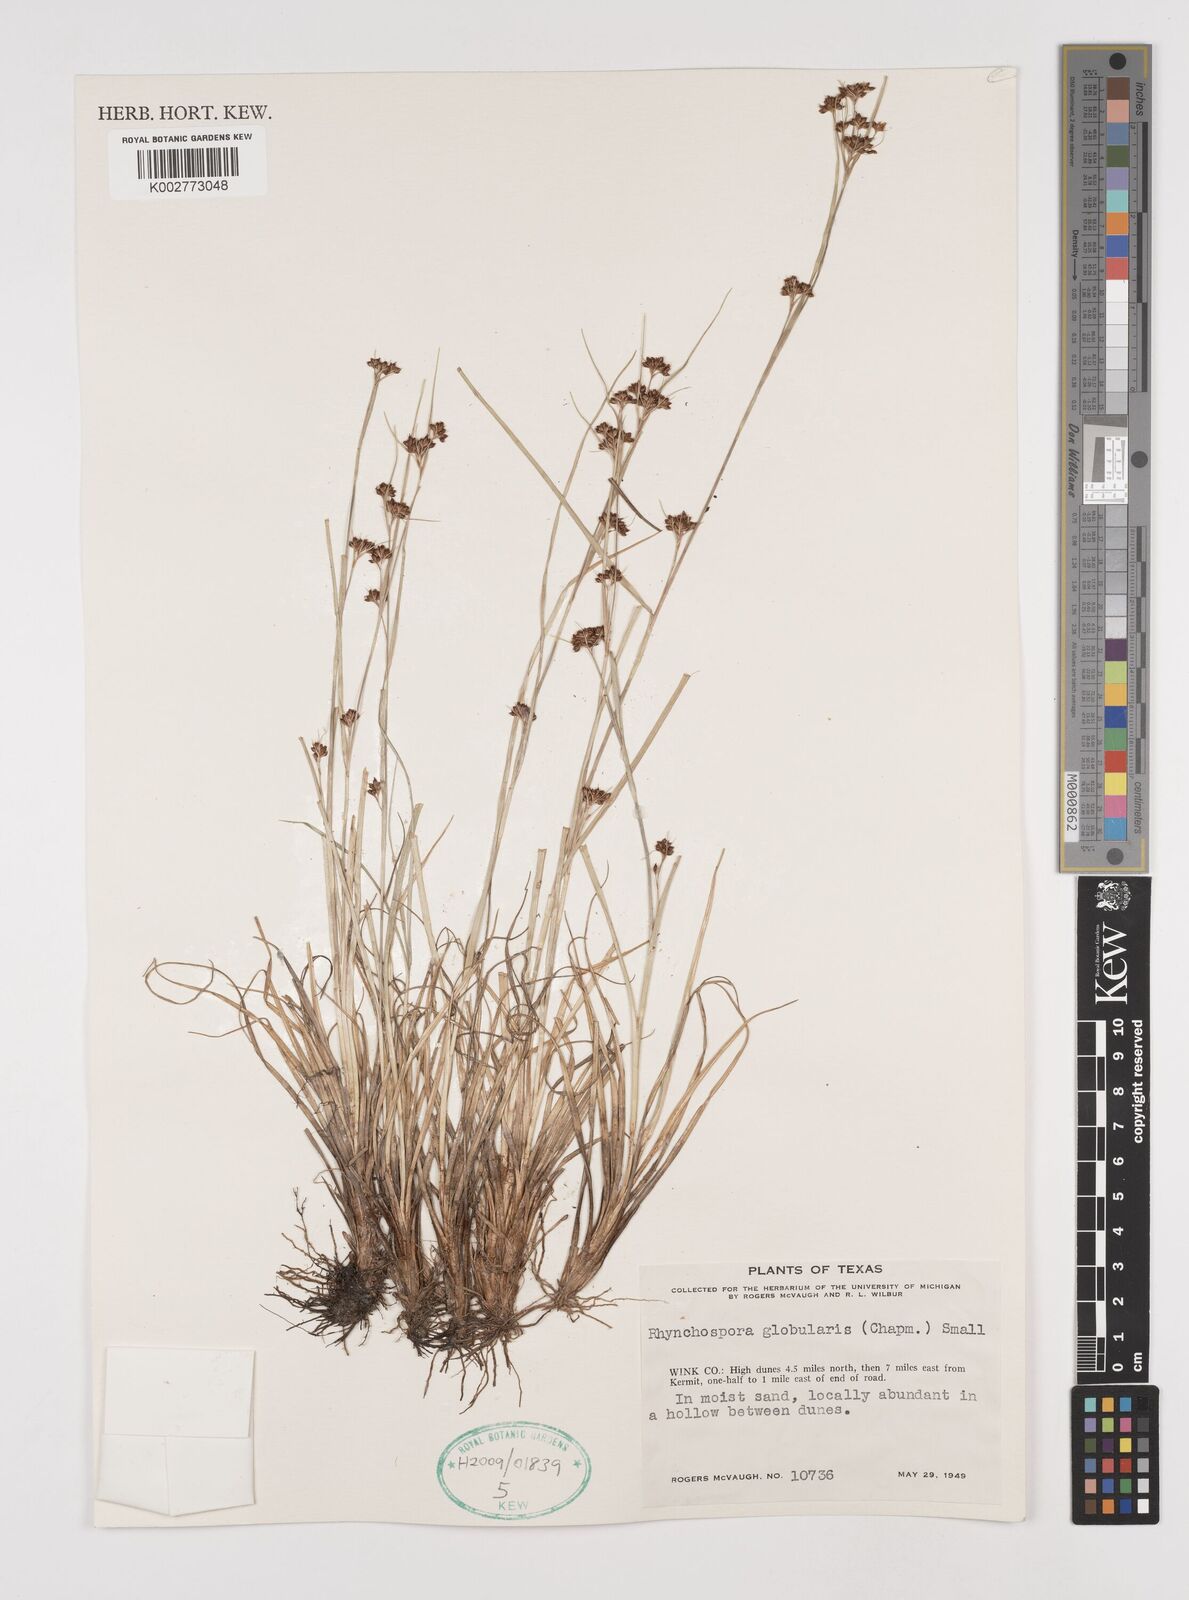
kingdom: Plantae
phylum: Tracheophyta
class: Liliopsida
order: Poales
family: Cyperaceae
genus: Rhynchospora
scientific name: Rhynchospora globularis
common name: Globe beaksedge
